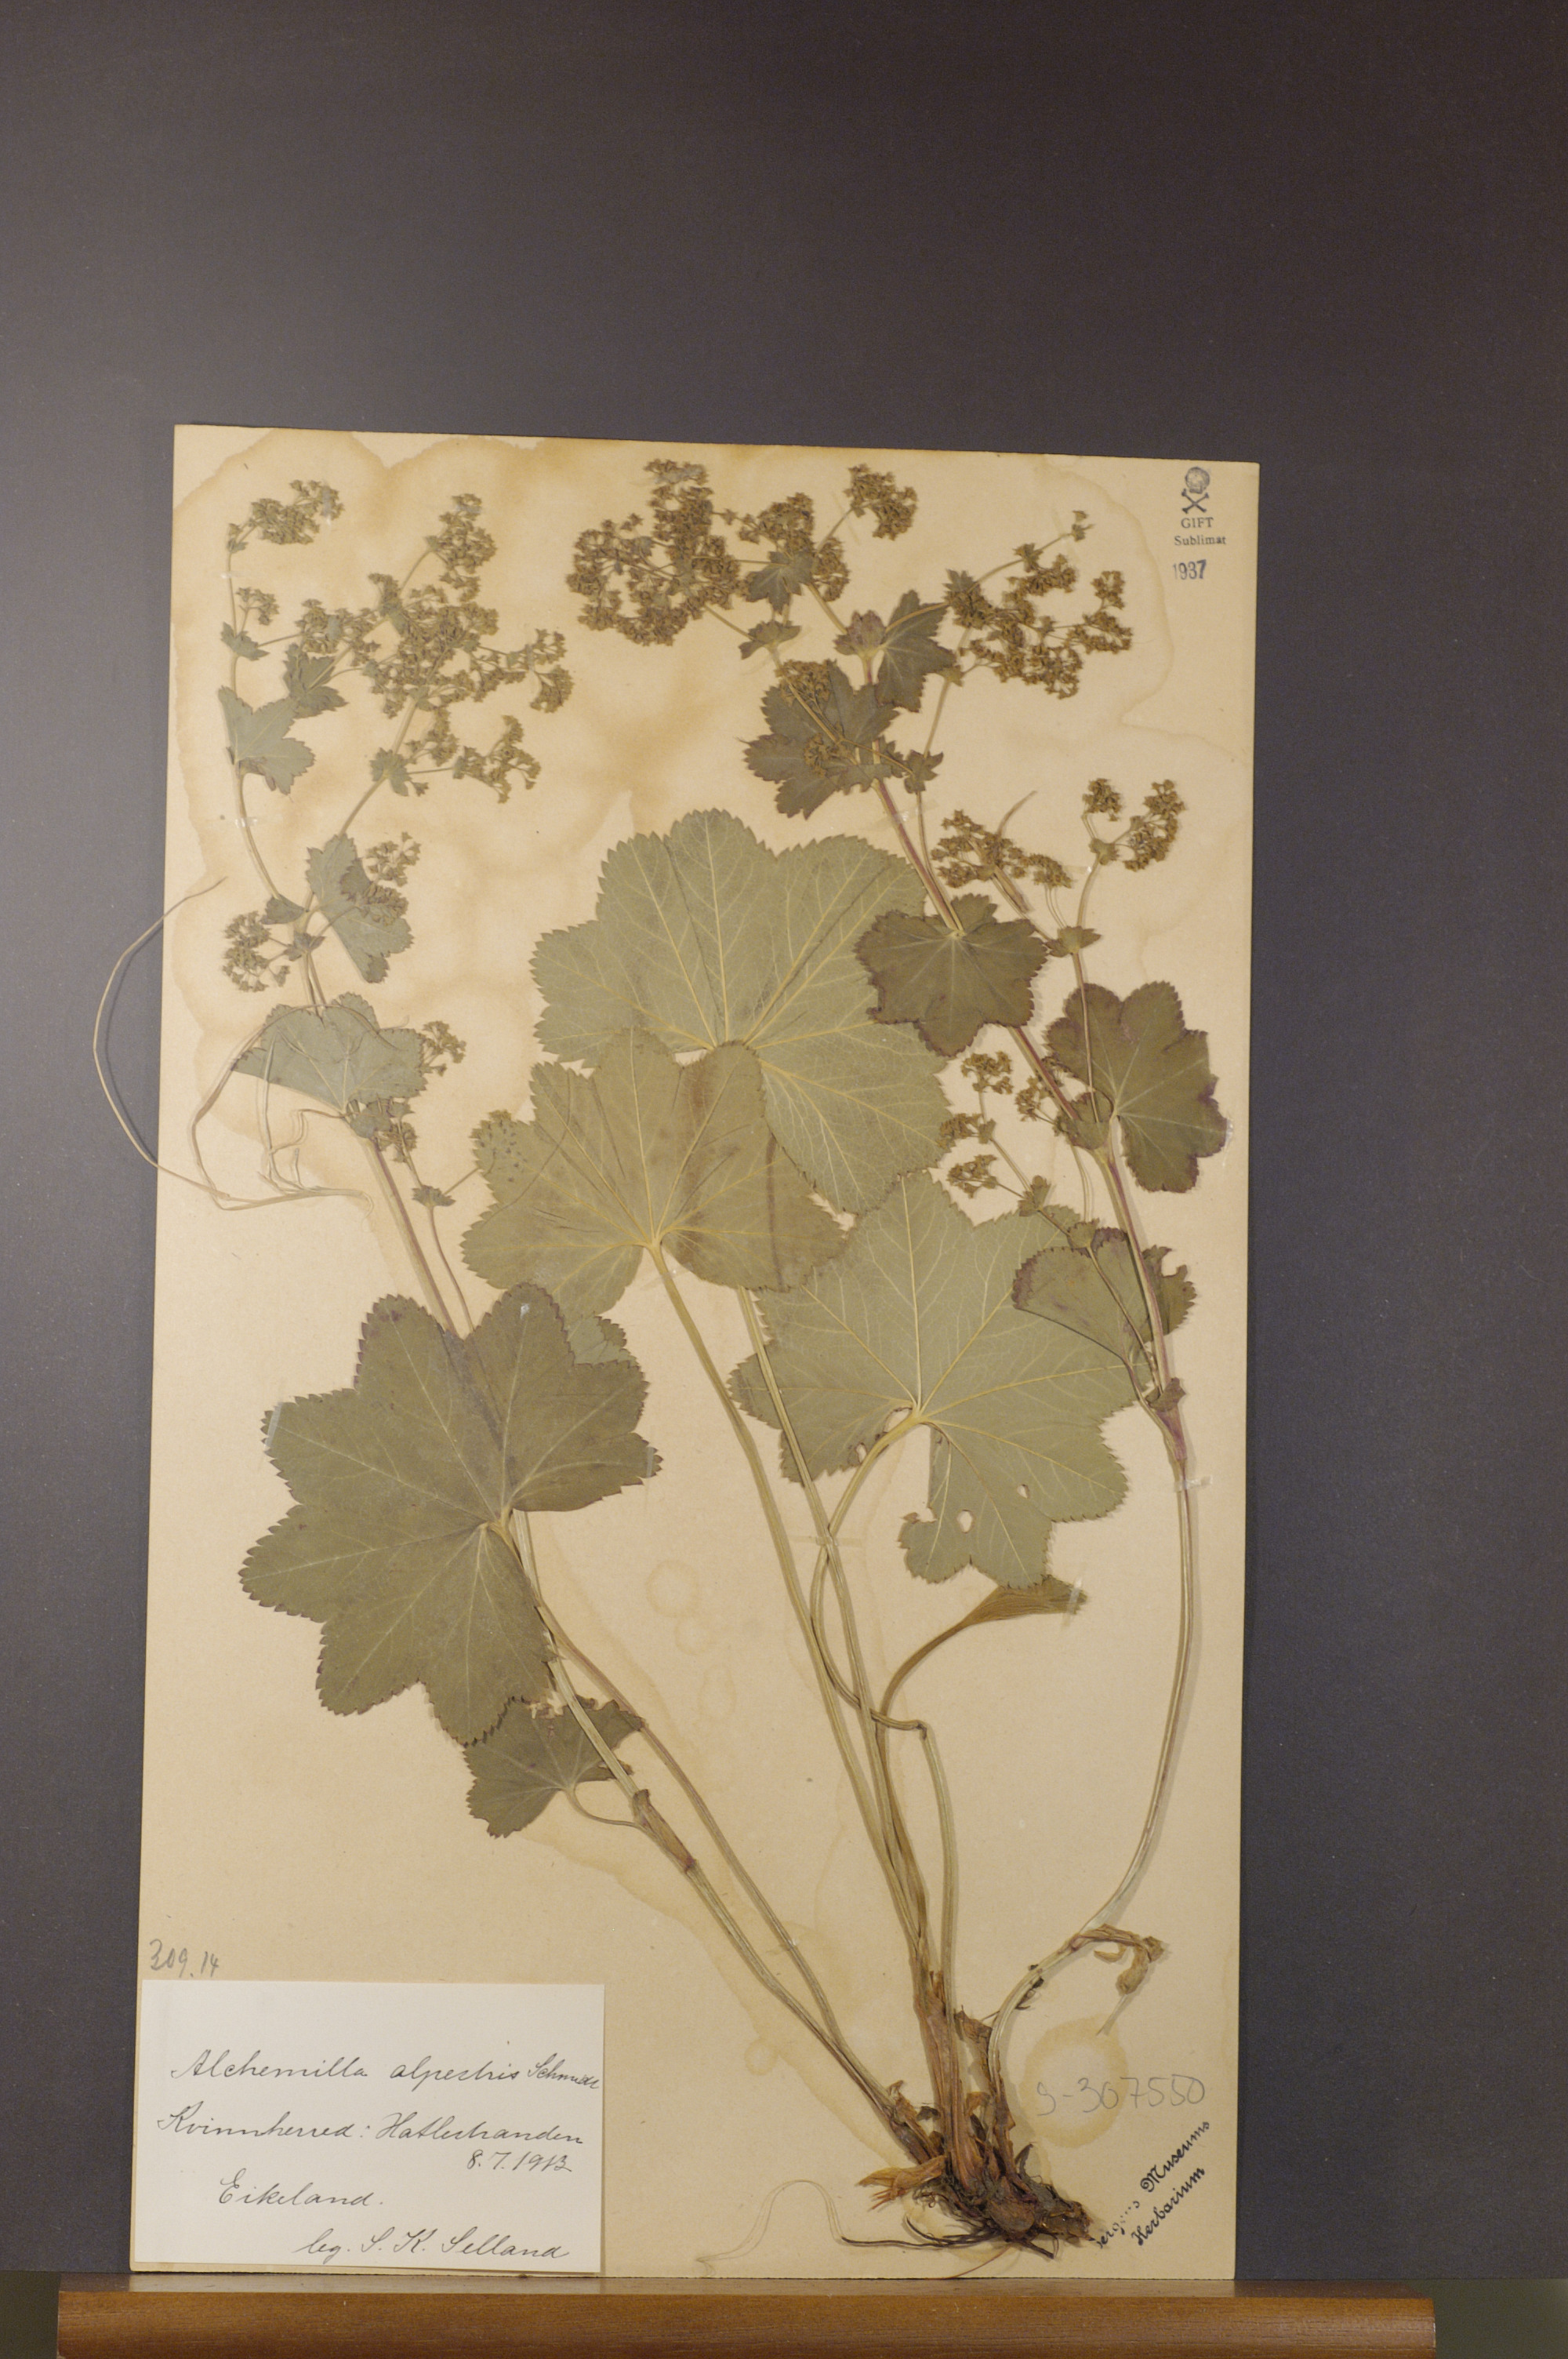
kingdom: Plantae
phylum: Tracheophyta
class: Magnoliopsida
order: Rosales
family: Rosaceae
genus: Alchemilla
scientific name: Alchemilla glabra
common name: Smooth lady's-mantle
